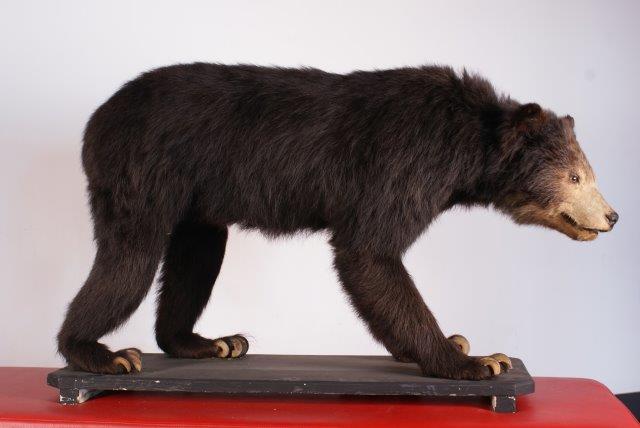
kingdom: Animalia
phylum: Chordata
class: Mammalia
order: Carnivora
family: Ursidae
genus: Ursus
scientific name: Ursus thibetanus
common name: Asian Black Bear
